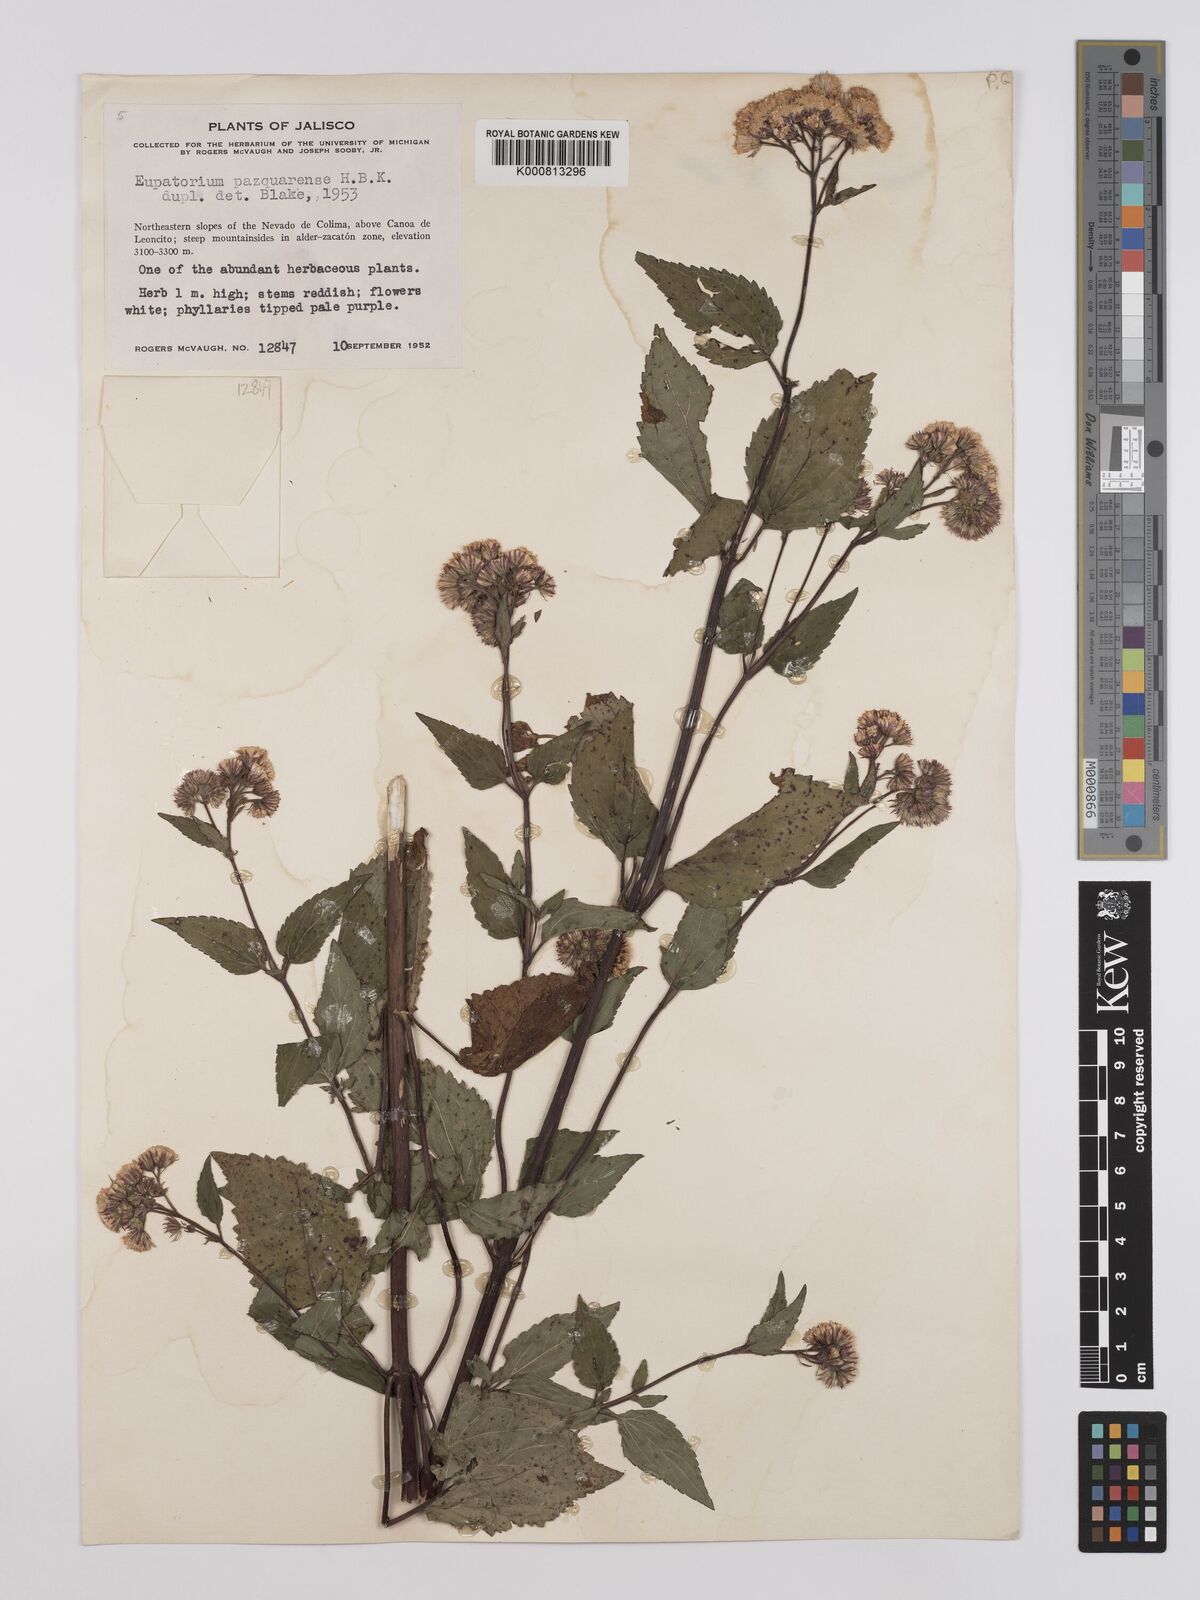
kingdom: Plantae
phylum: Tracheophyta
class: Magnoliopsida
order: Asterales
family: Asteraceae
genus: Ageratina
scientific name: Ageratina pazcuarensis
